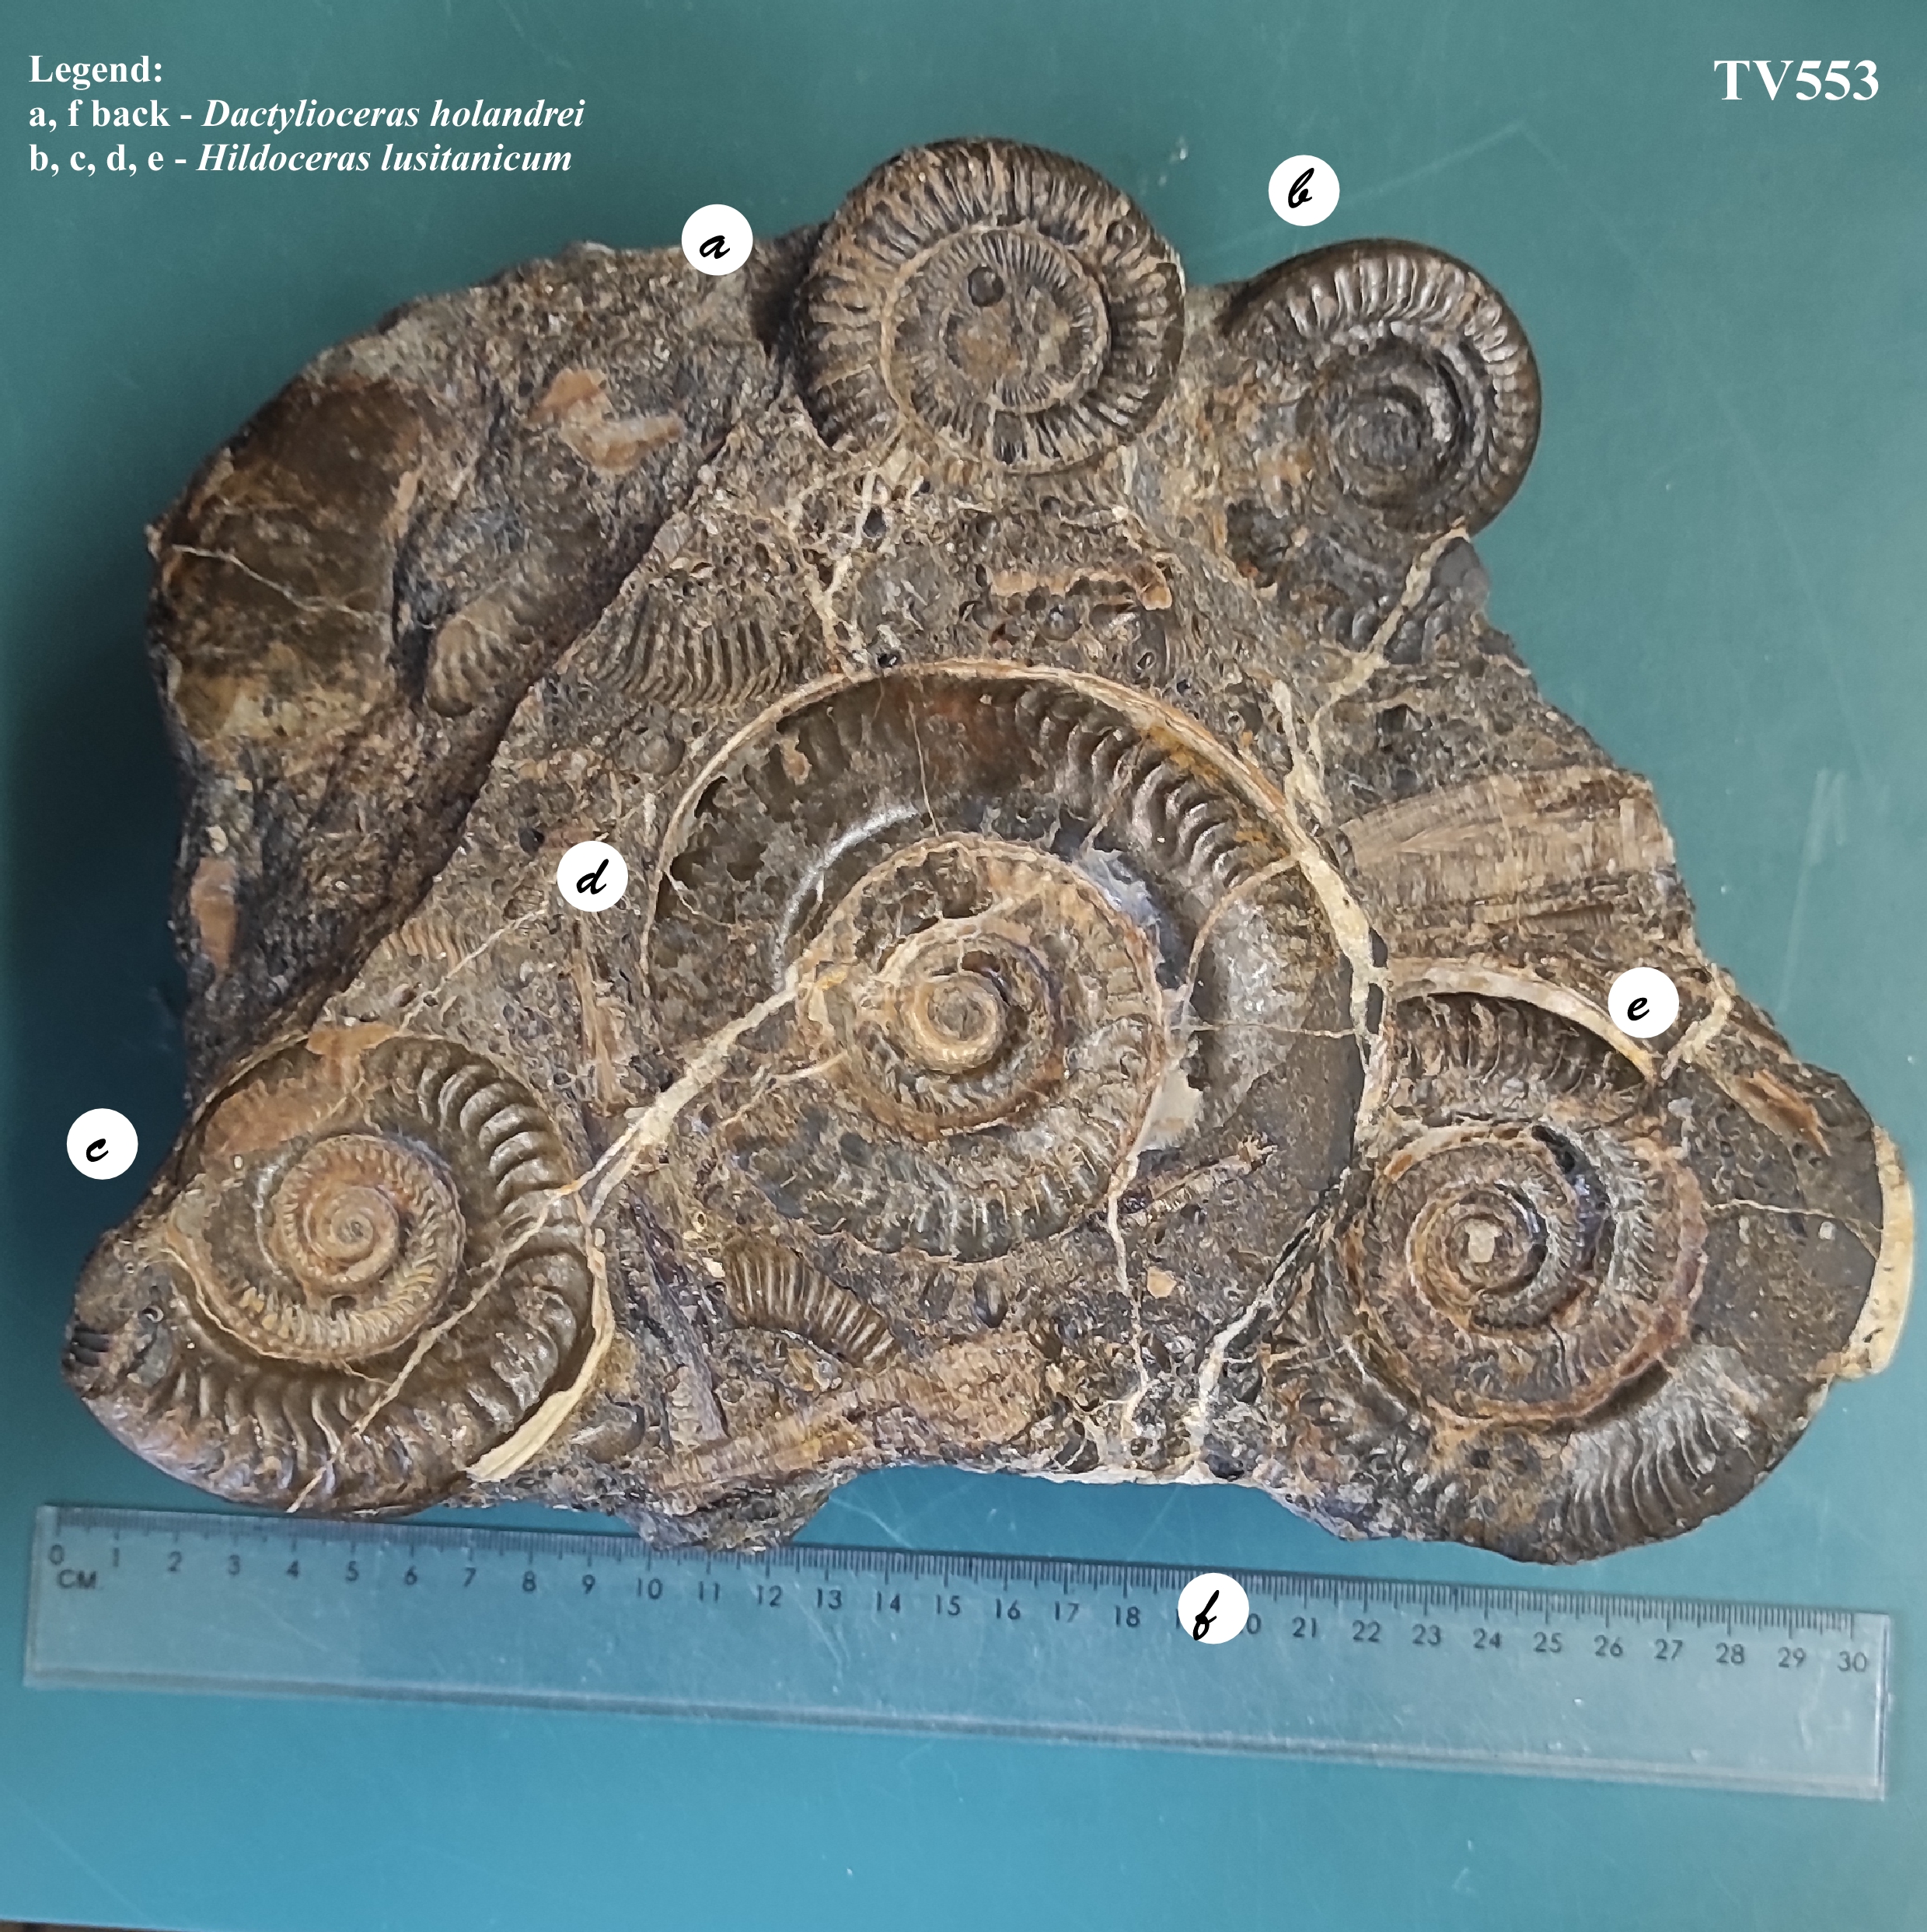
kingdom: Animalia
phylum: Mollusca
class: Cephalopoda
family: Hildoceratidae
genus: Hildoceras
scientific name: Hildoceras lusitanicum
